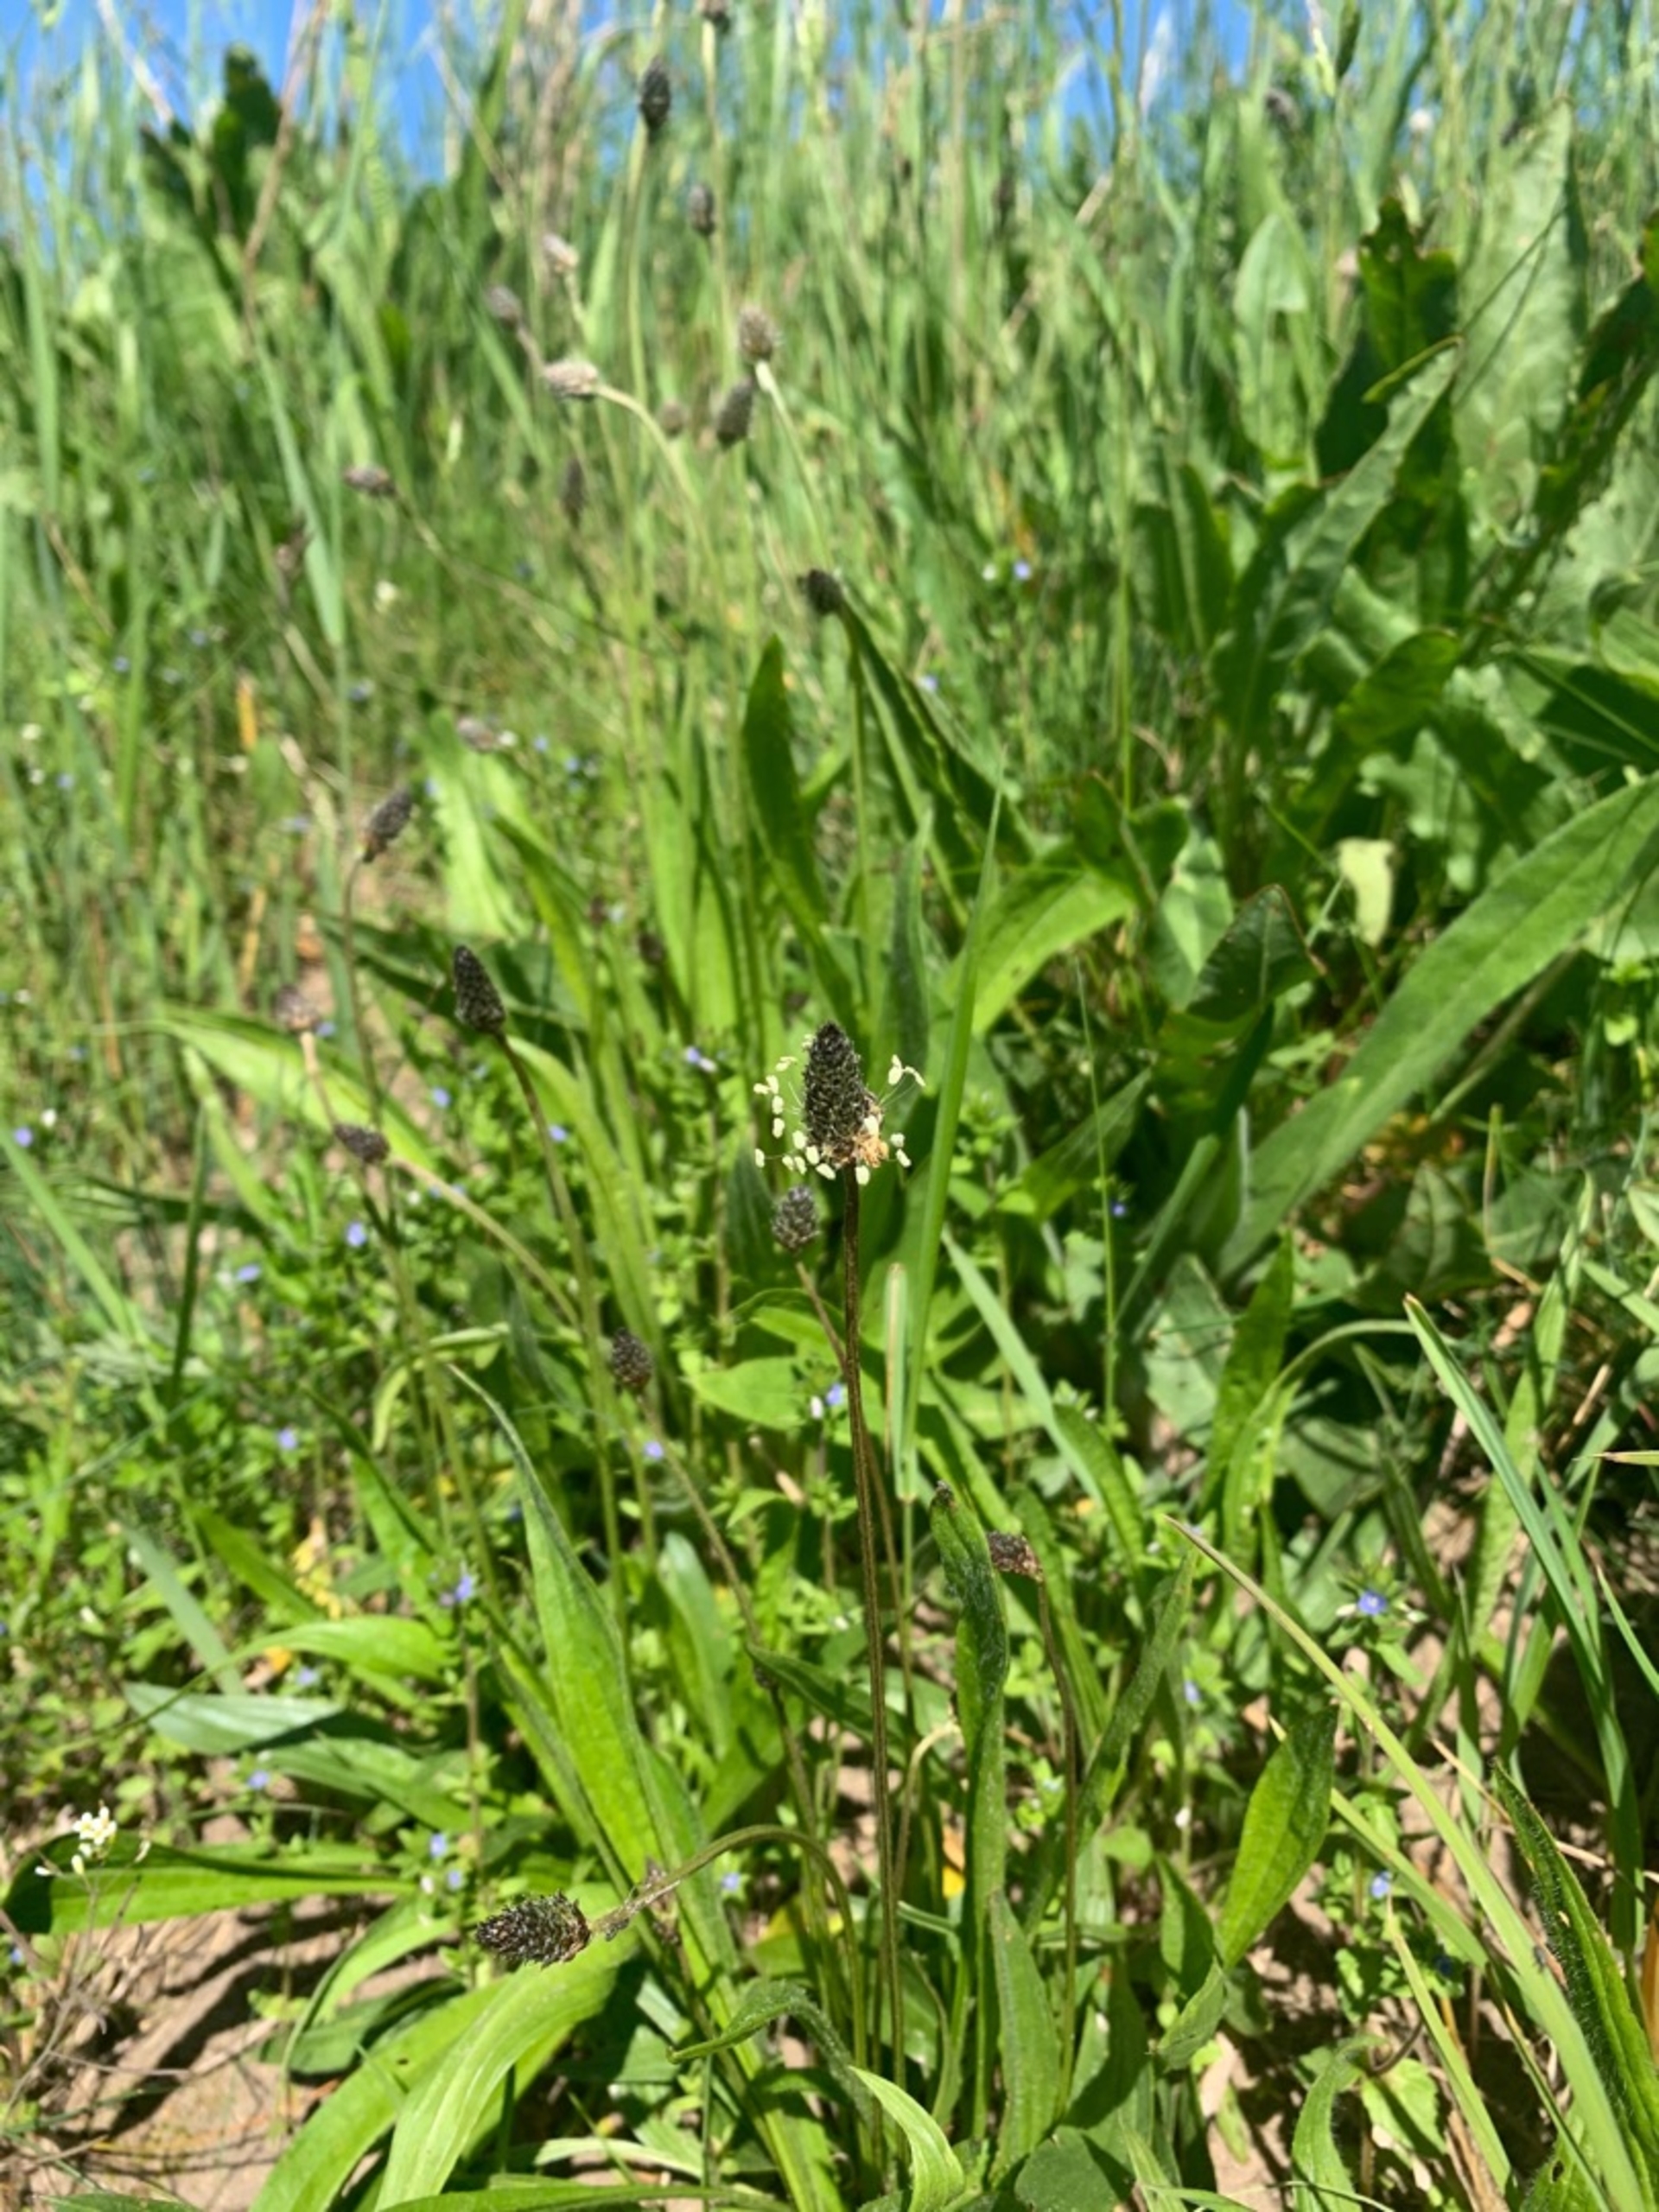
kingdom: Plantae
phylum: Tracheophyta
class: Magnoliopsida
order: Lamiales
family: Plantaginaceae
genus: Plantago
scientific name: Plantago lanceolata
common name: Lancet-vejbred
